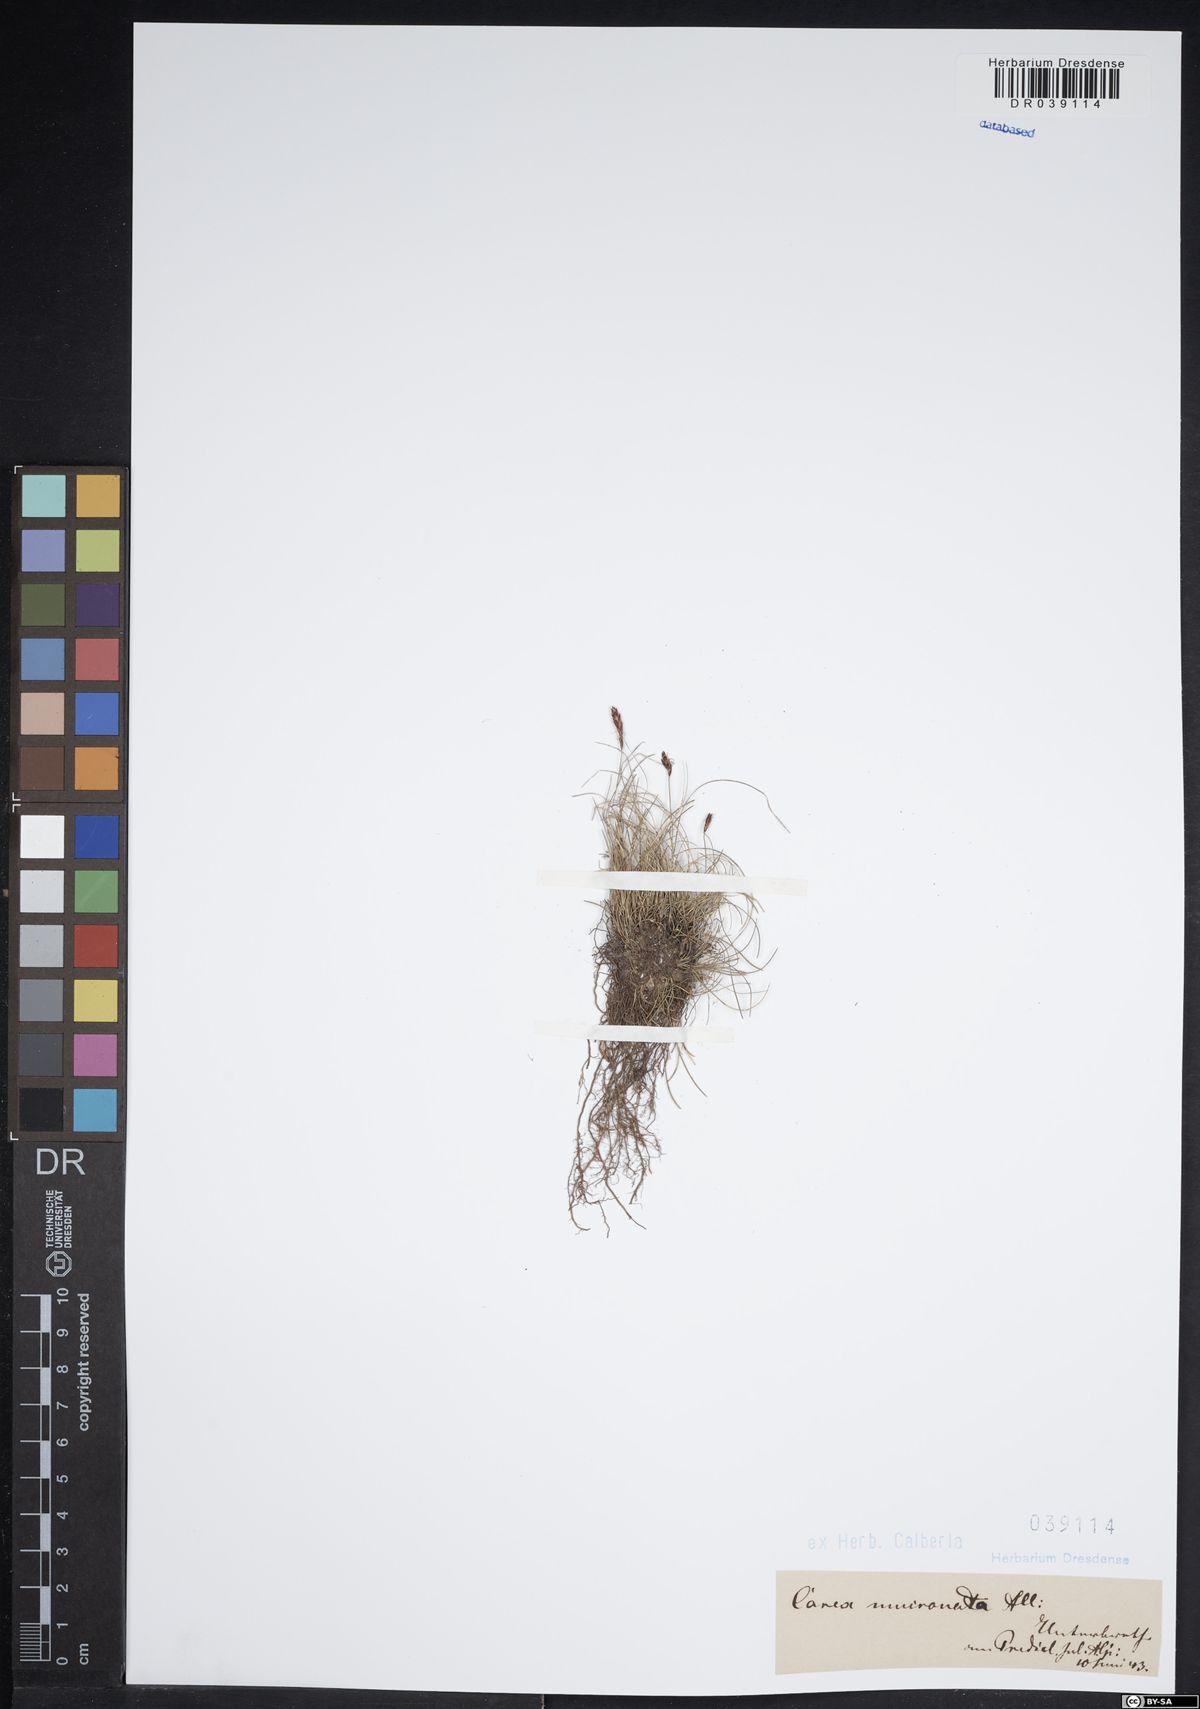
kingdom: Plantae
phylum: Tracheophyta
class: Liliopsida
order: Poales
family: Cyperaceae
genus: Carex
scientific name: Carex mucronata
